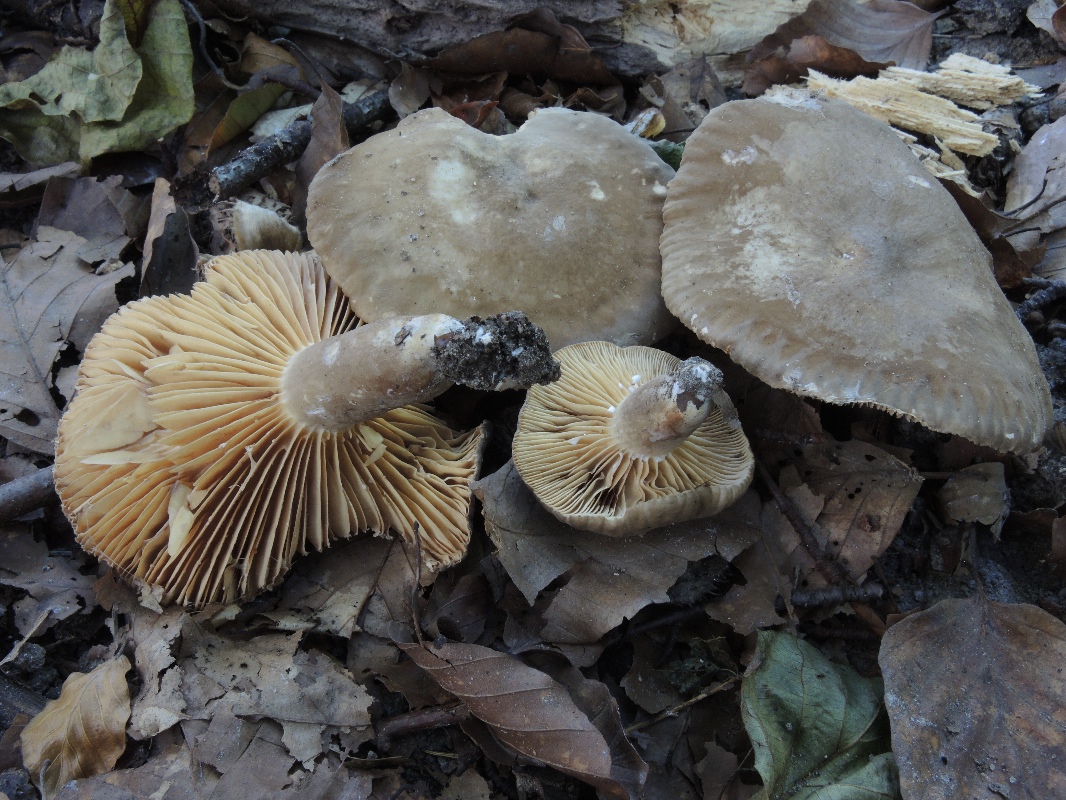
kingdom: Fungi
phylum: Basidiomycota
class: Agaricomycetes
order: Russulales
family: Russulaceae
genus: Lactarius
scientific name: Lactarius romagnesii
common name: fjernbladet mælkehat
